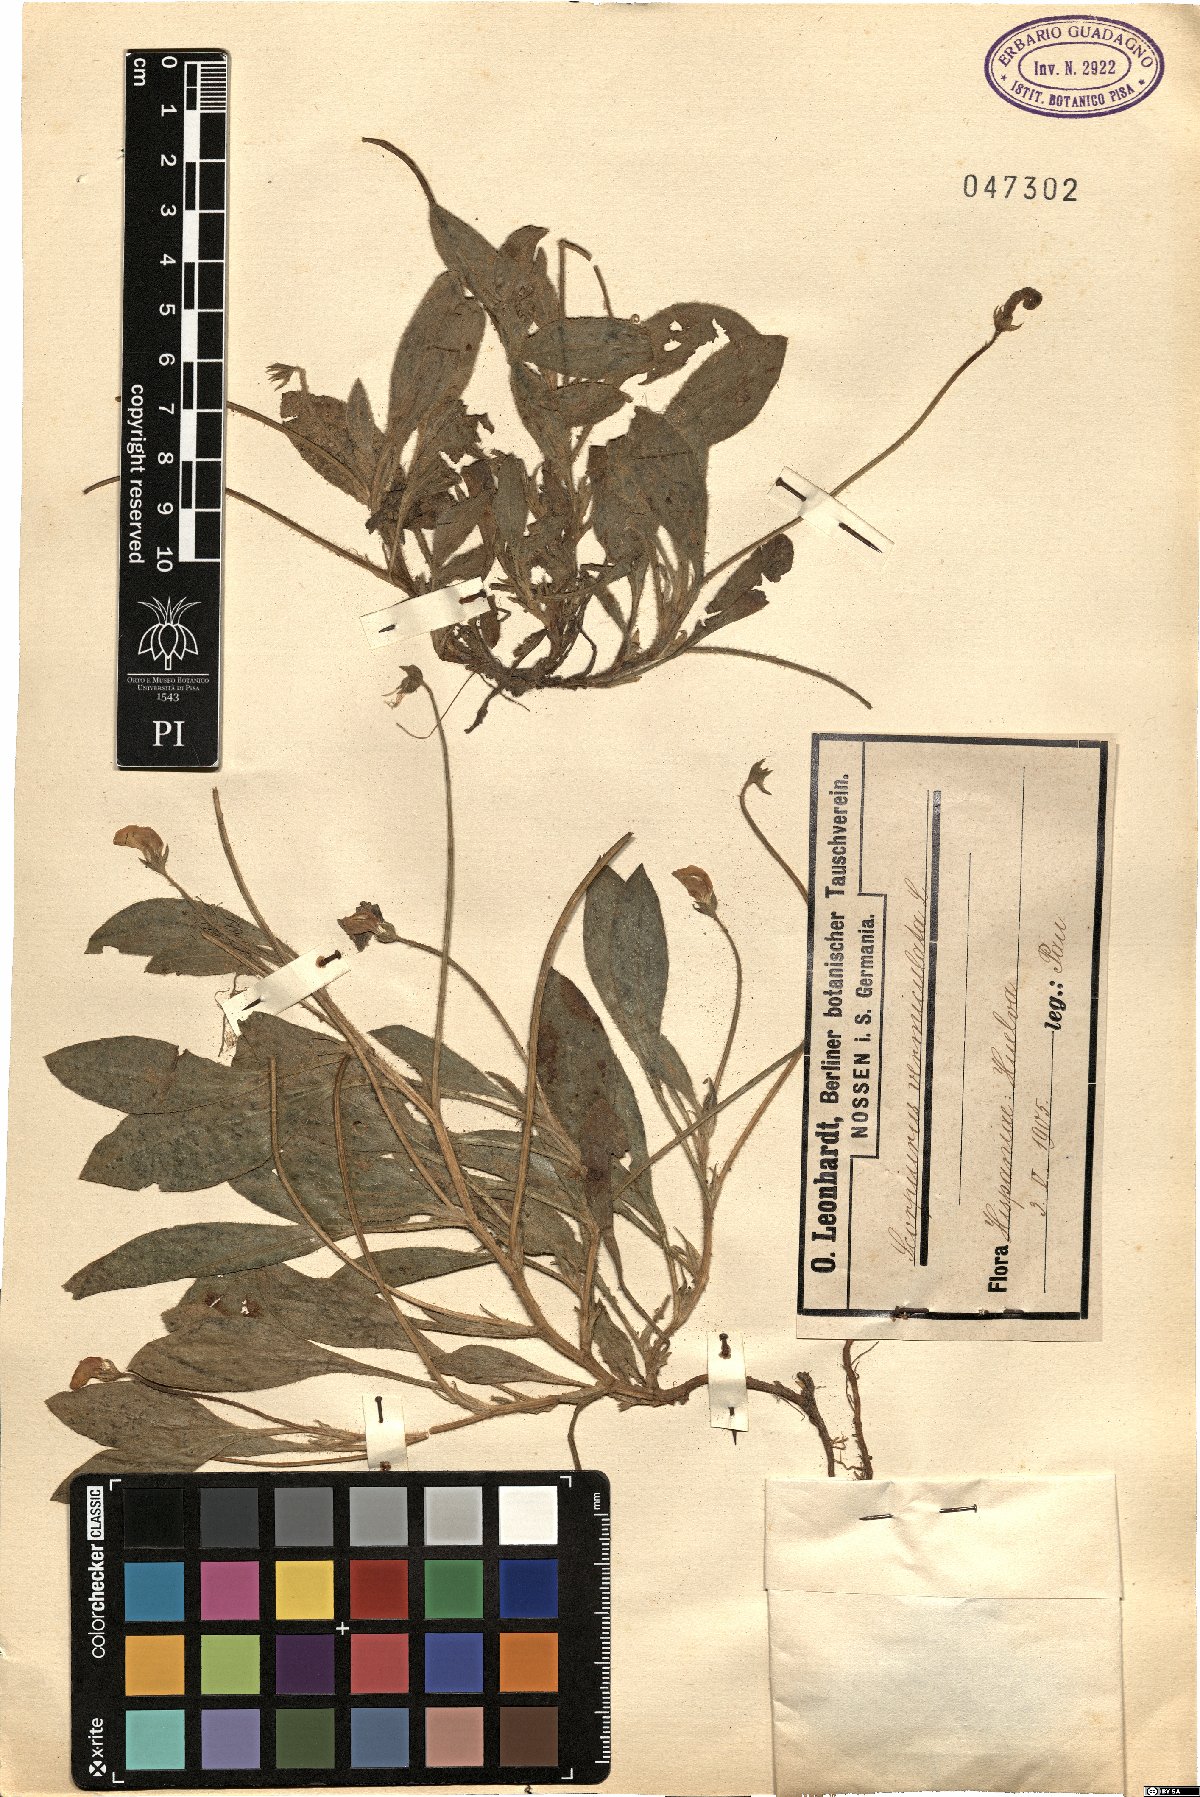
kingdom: Plantae
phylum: Tracheophyta
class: Magnoliopsida
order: Fabales
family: Fabaceae
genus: Scorpiurus
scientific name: Scorpiurus vermiculatus
